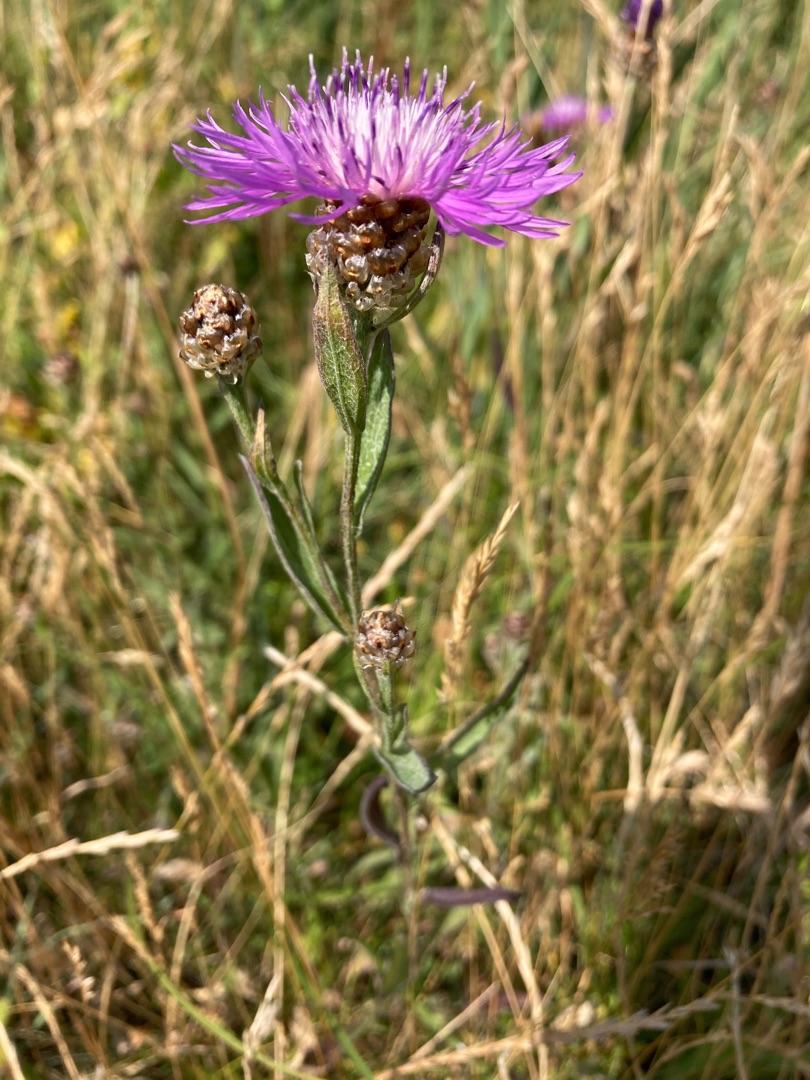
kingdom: Plantae
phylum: Tracheophyta
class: Magnoliopsida
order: Asterales
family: Asteraceae
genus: Centaurea
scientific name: Centaurea jacea
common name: Almindelig knopurt
